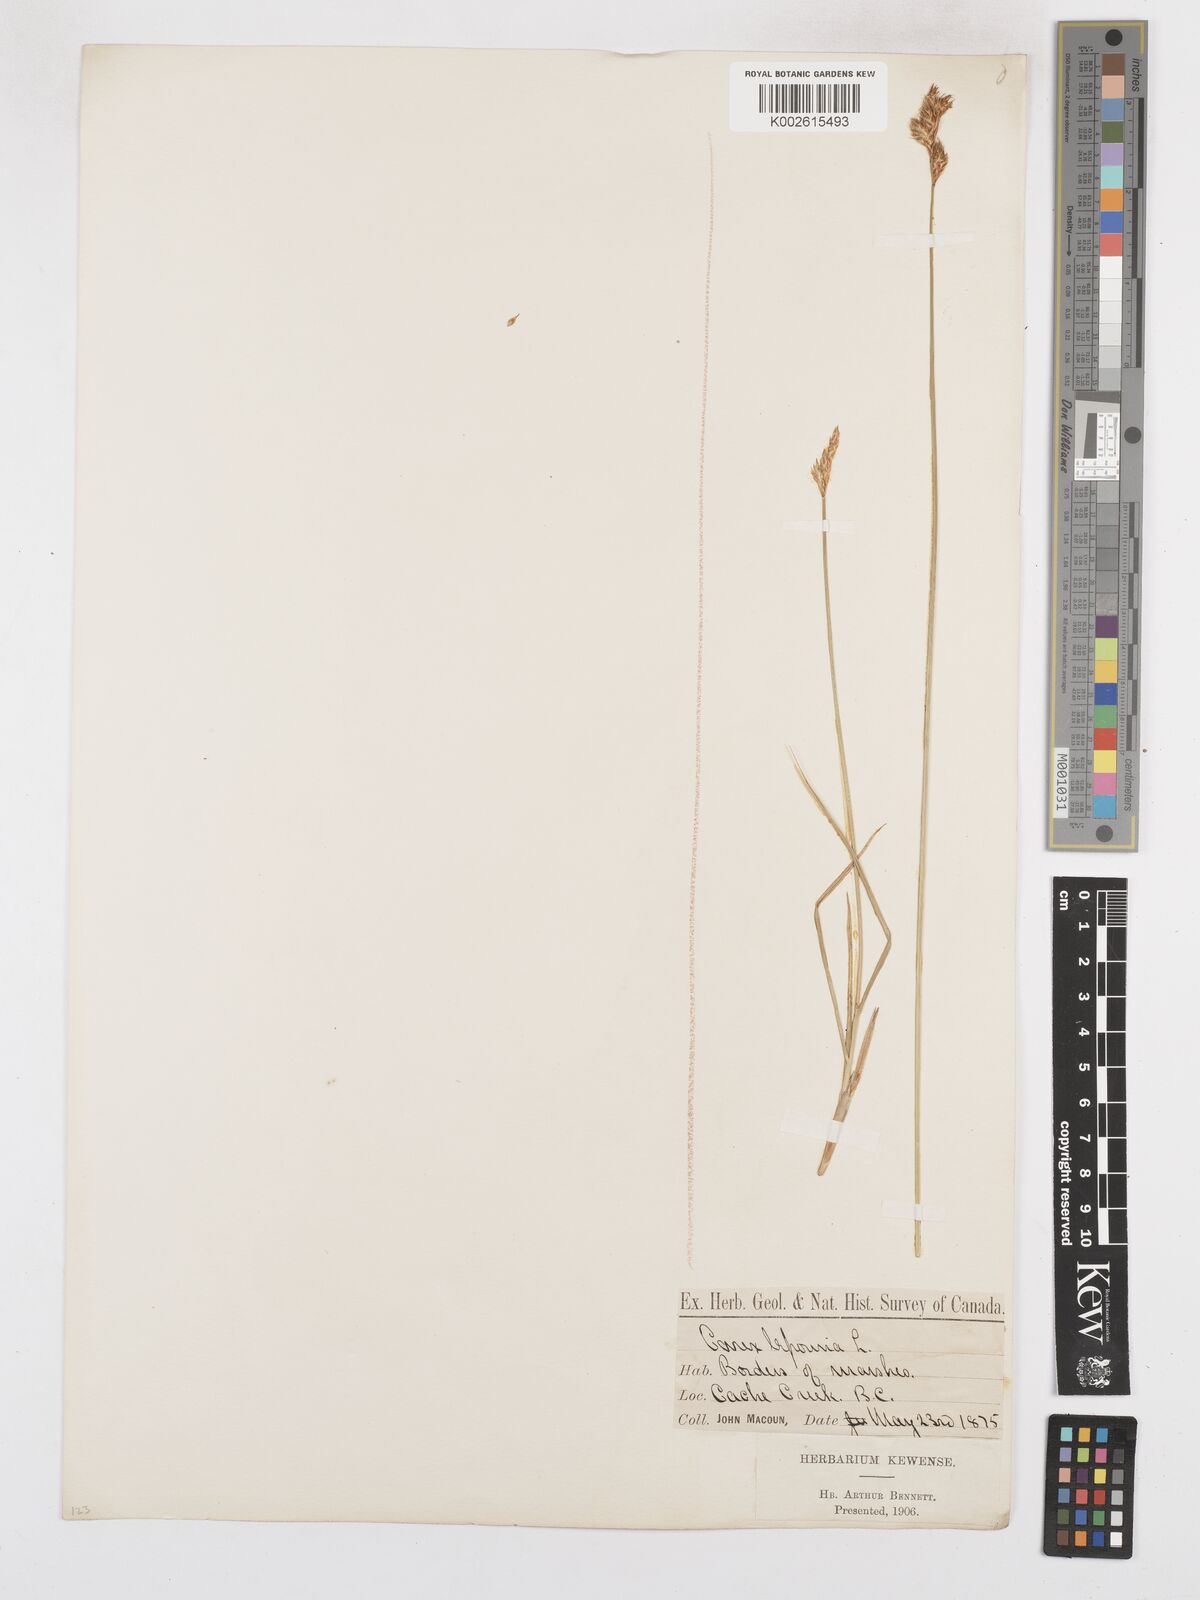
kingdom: Plantae
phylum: Tracheophyta
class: Liliopsida
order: Poales
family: Cyperaceae
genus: Carex
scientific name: Carex macloviana
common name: Falkland island sedge
